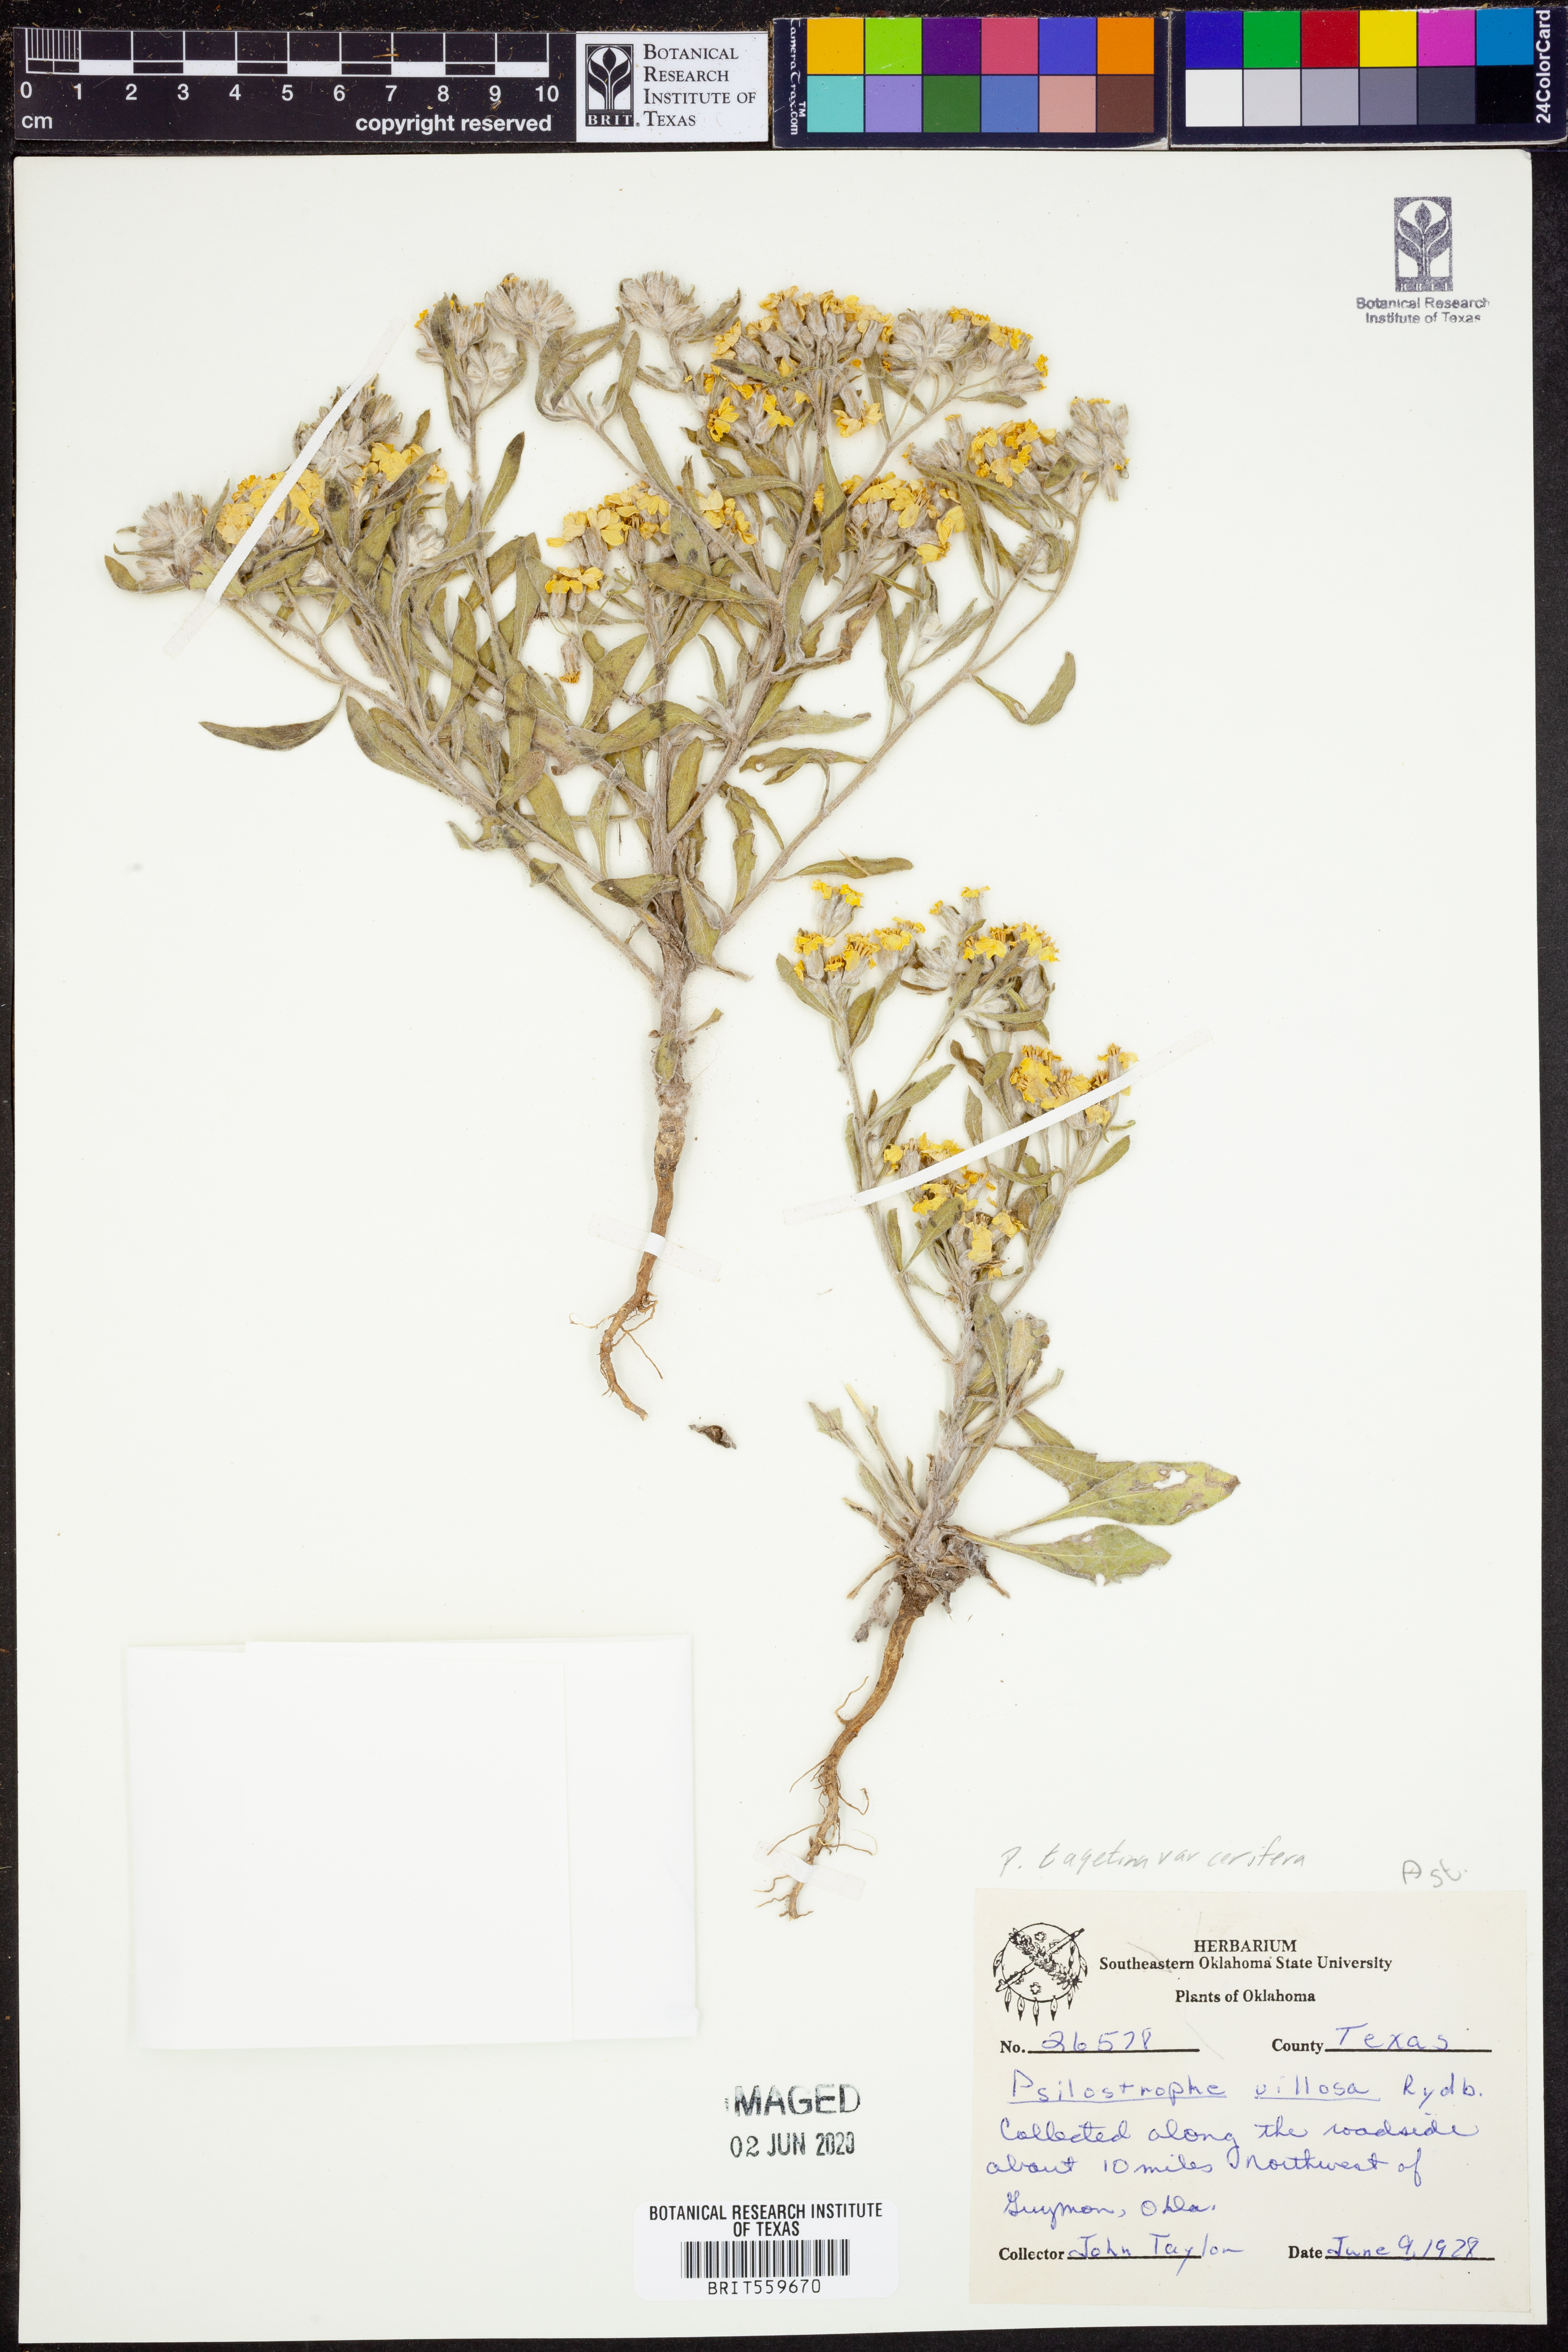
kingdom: Plantae
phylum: Tracheophyta
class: Magnoliopsida
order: Asterales
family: Asteraceae
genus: Psilostrophe
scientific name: Psilostrophe villosa
